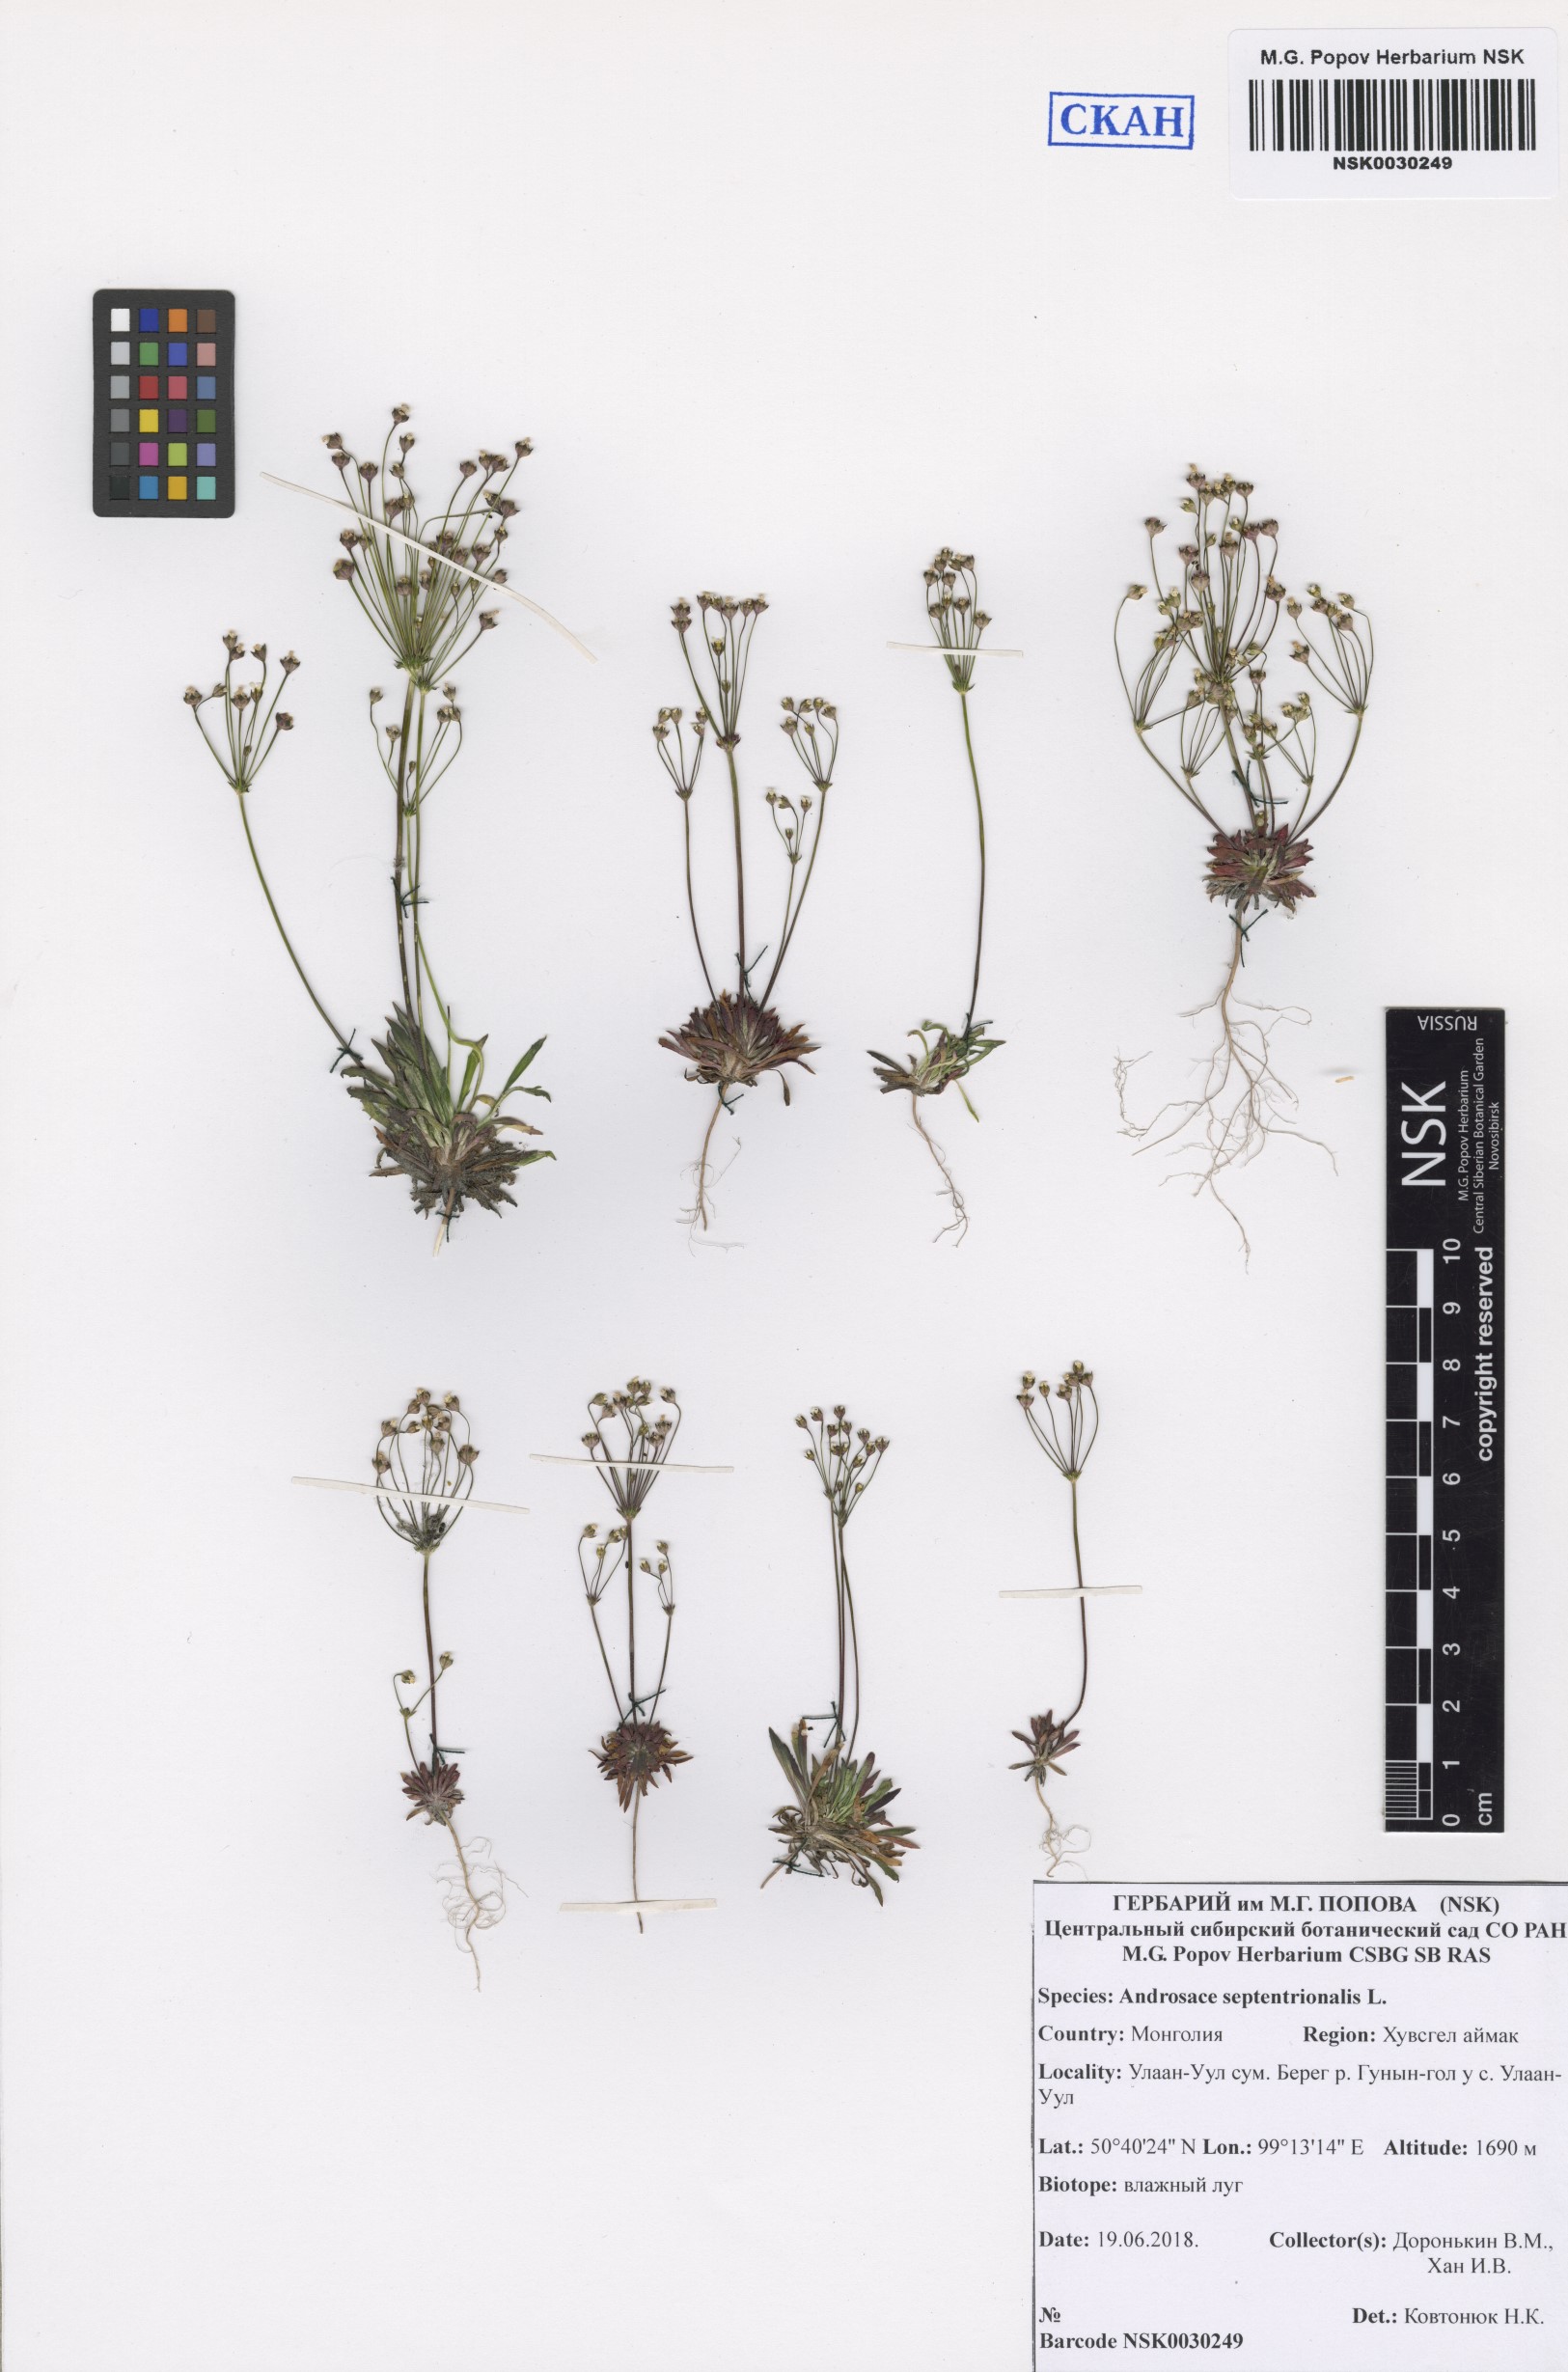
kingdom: Plantae
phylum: Tracheophyta
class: Magnoliopsida
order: Ericales
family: Primulaceae
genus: Androsace
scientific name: Androsace septentrionalis
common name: Hairy northern fairy-candelabra
